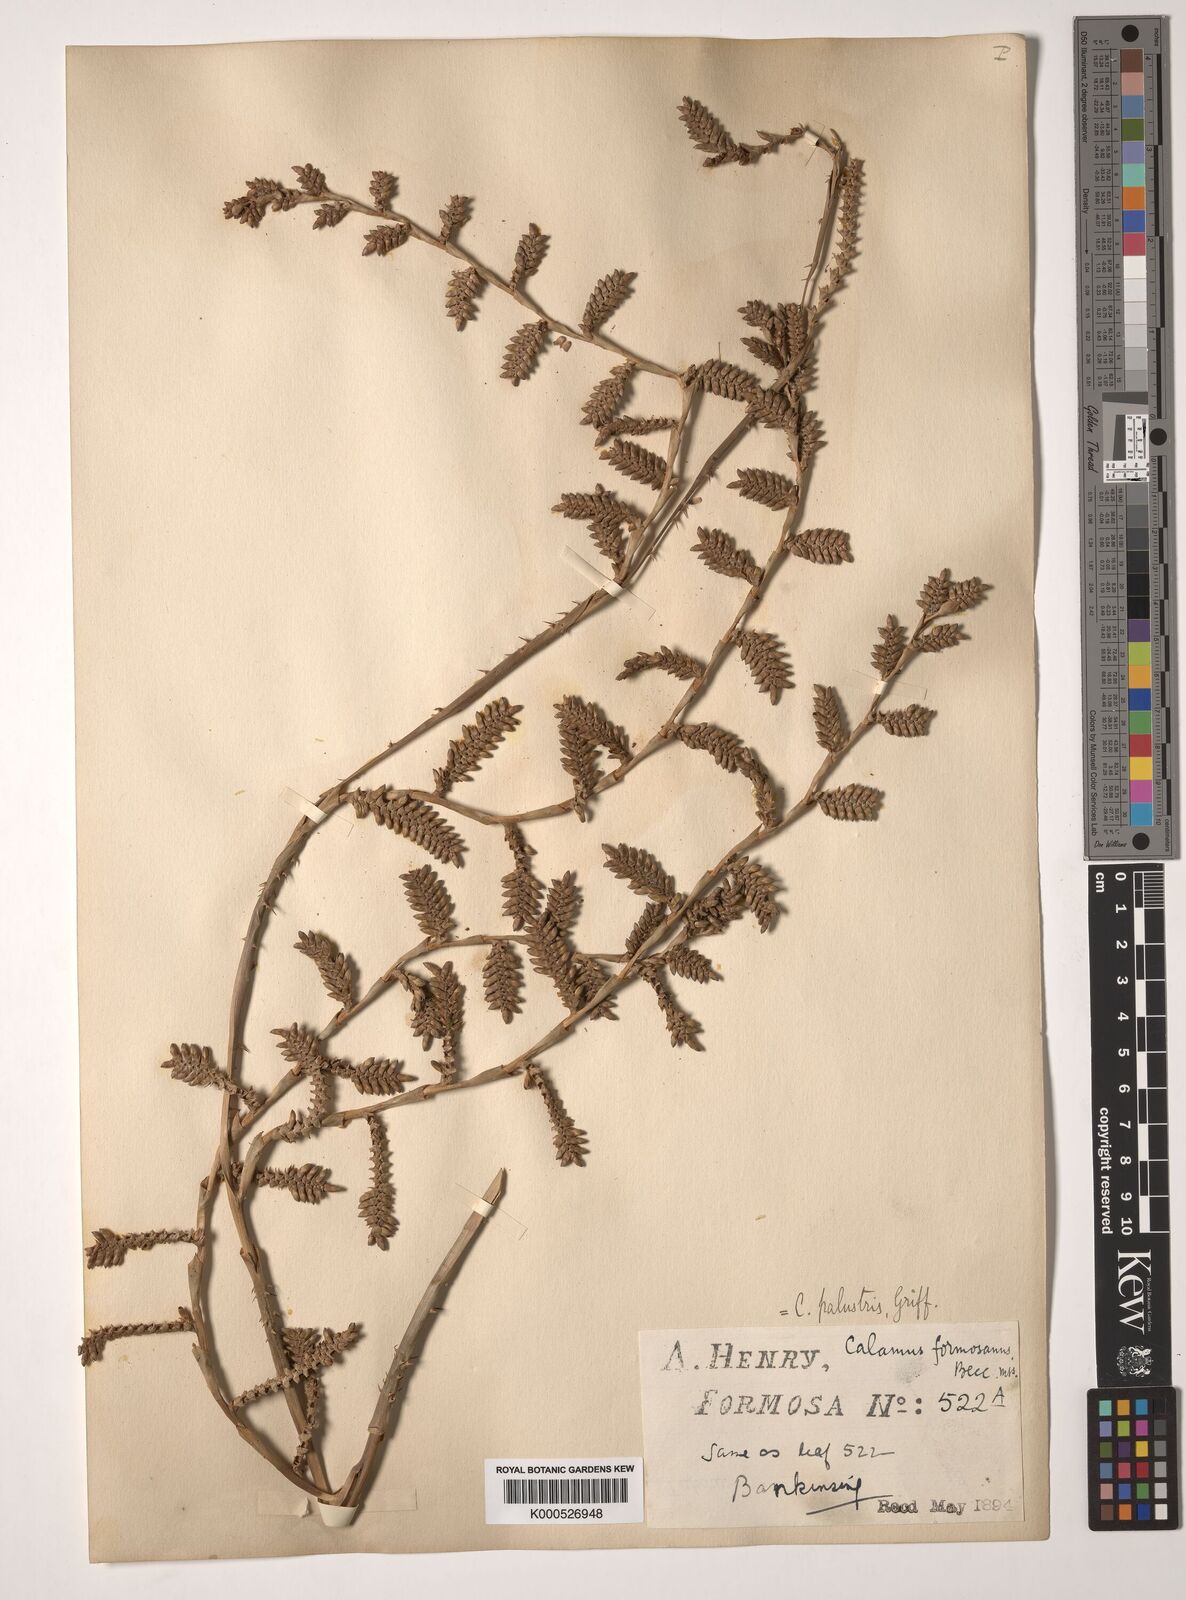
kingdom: Plantae
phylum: Tracheophyta
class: Liliopsida
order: Arecales
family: Arecaceae
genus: Calamus
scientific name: Calamus formosanus
